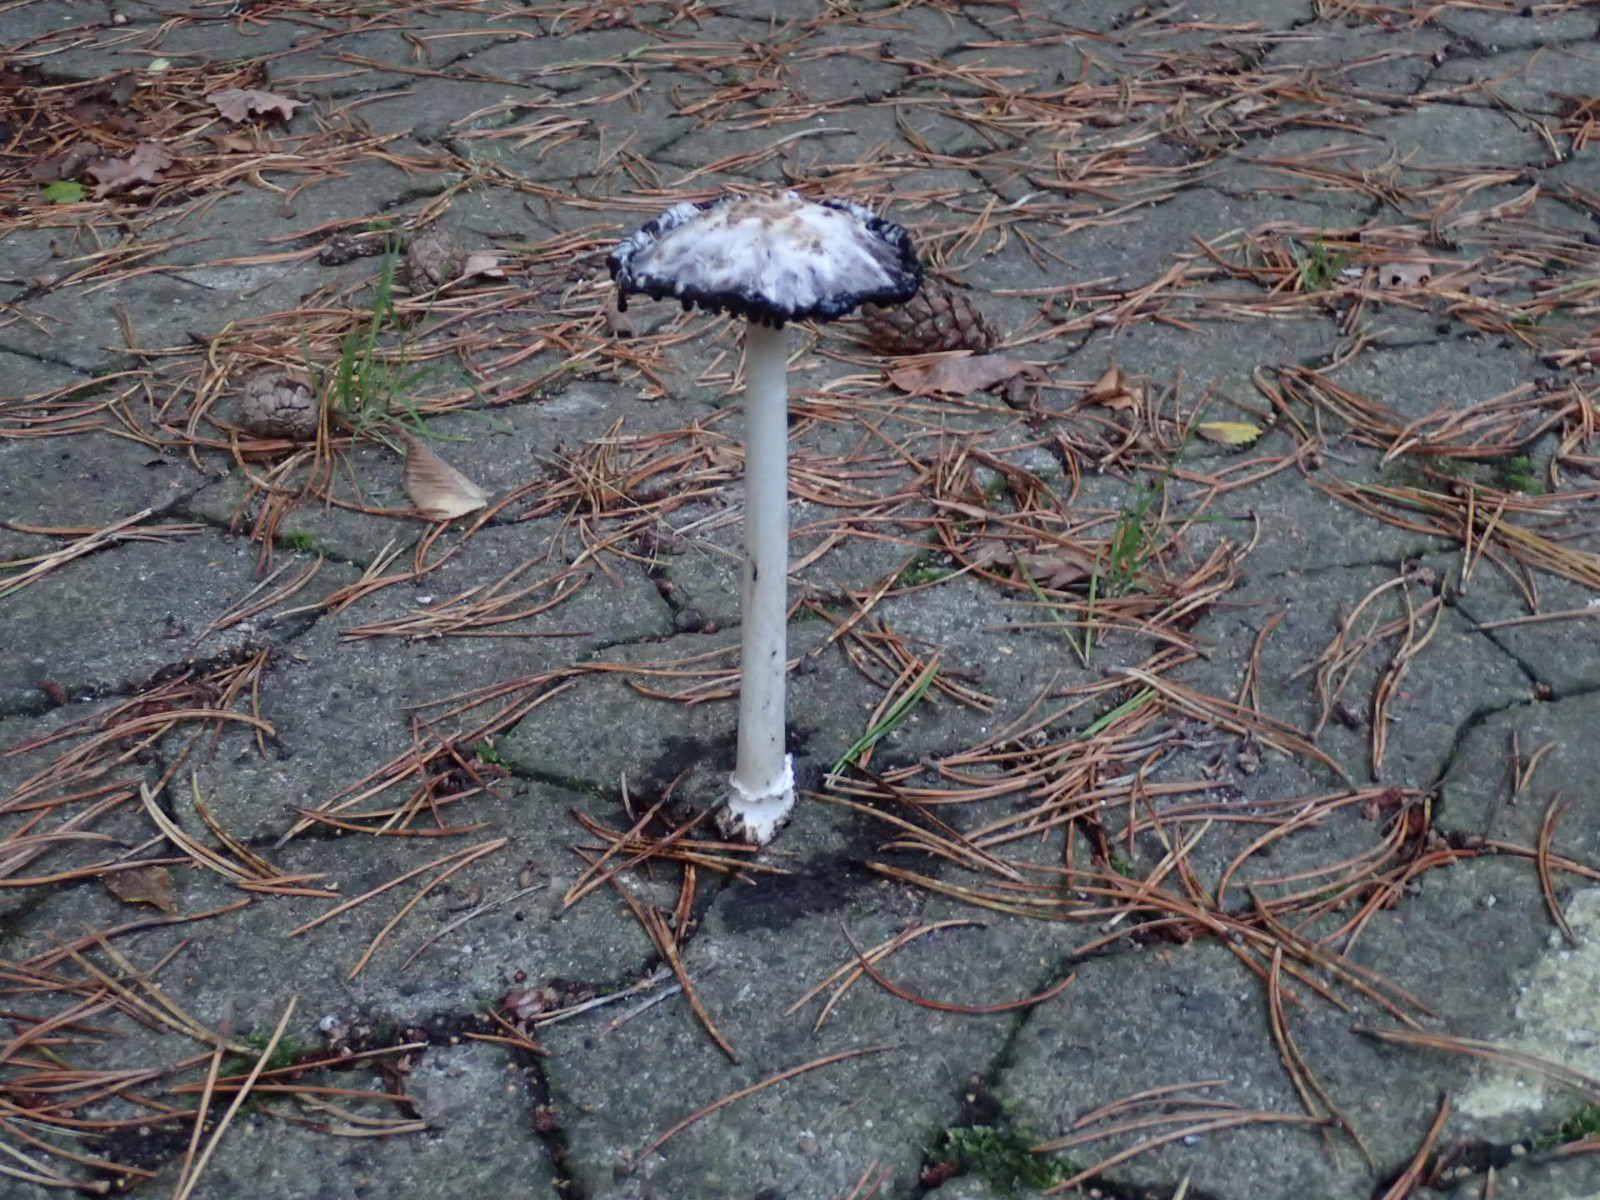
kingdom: Fungi
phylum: Basidiomycota
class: Agaricomycetes
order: Agaricales
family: Agaricaceae
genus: Coprinus
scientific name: Coprinus comatus
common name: stor parykhat
